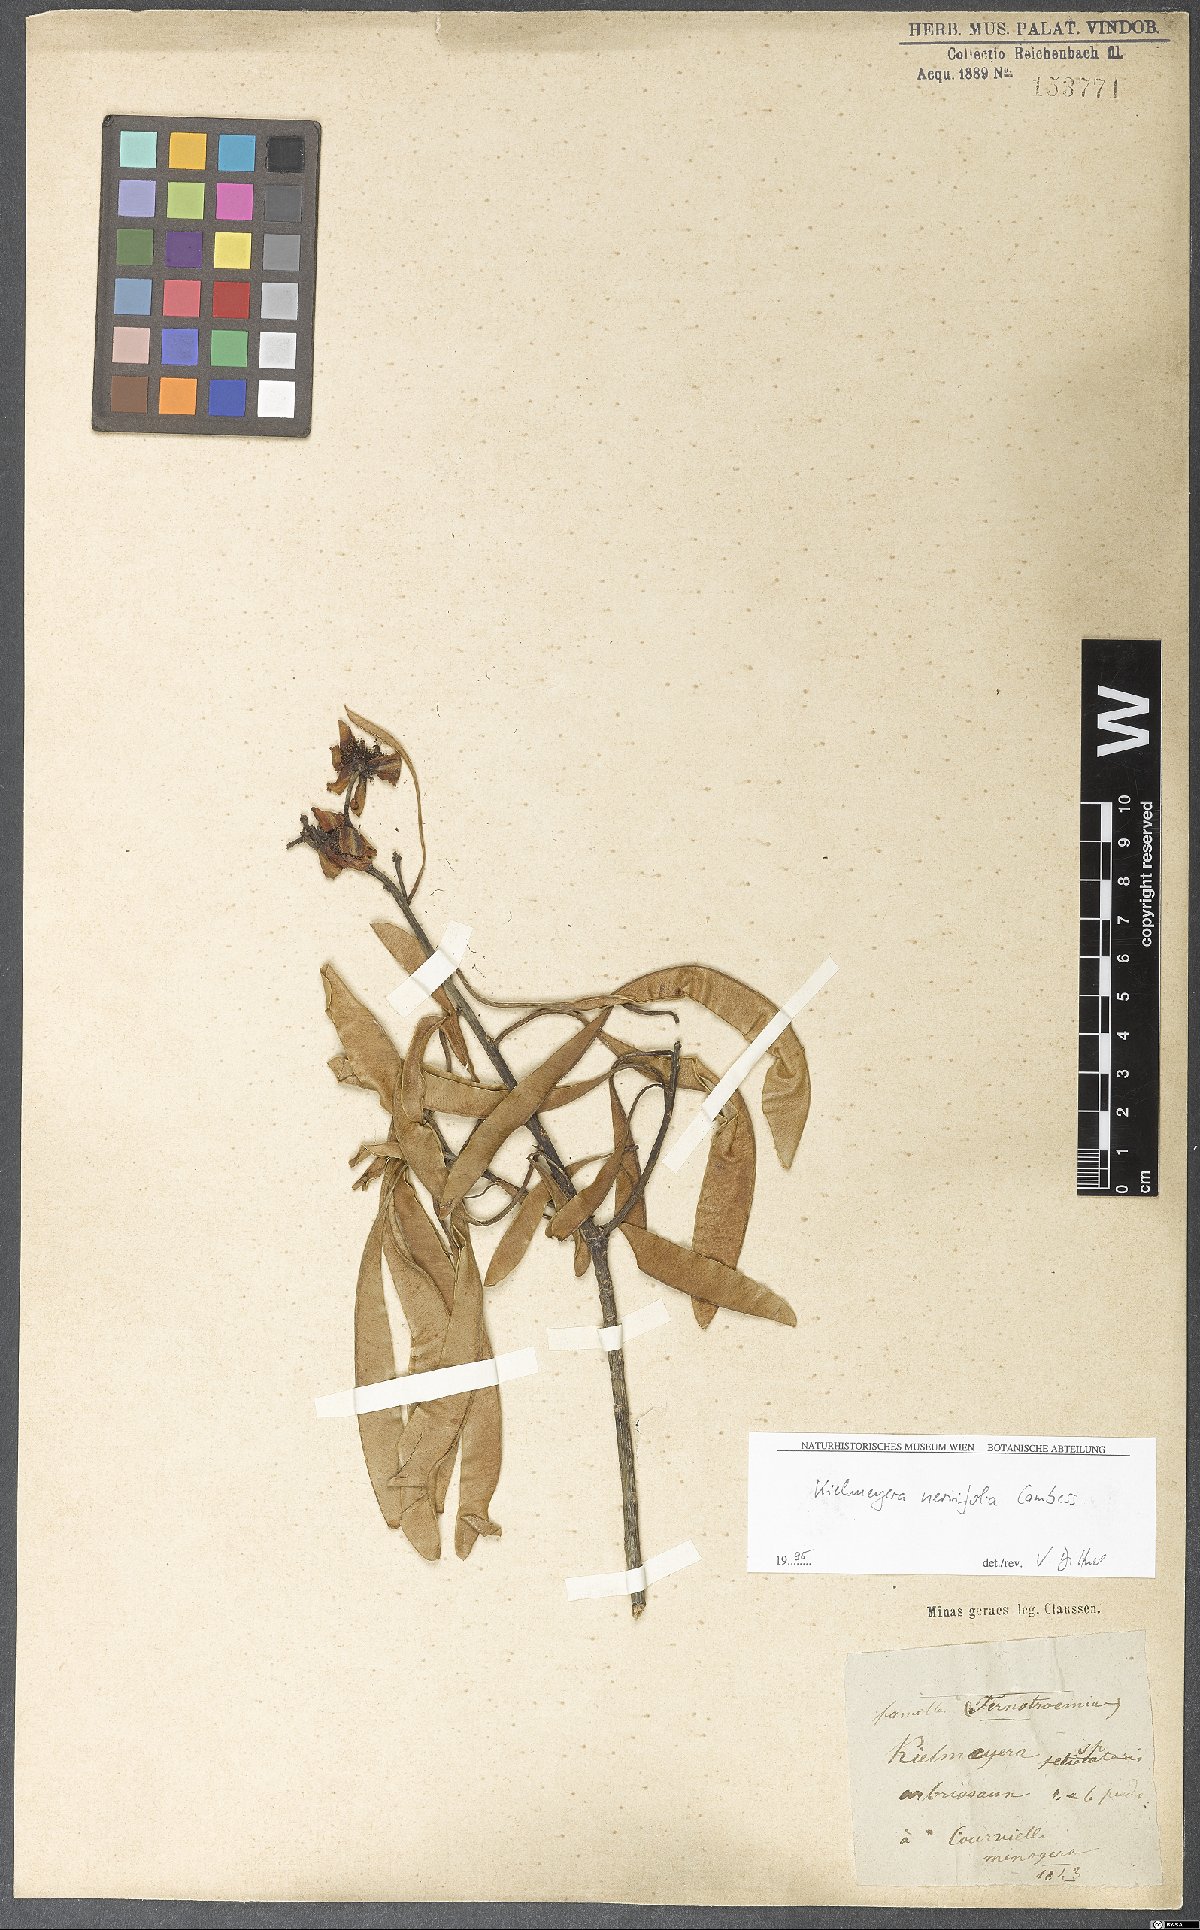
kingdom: Plantae
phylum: Tracheophyta
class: Magnoliopsida
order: Malpighiales
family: Calophyllaceae
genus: Kielmeyera
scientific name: Kielmeyera neriifolia
